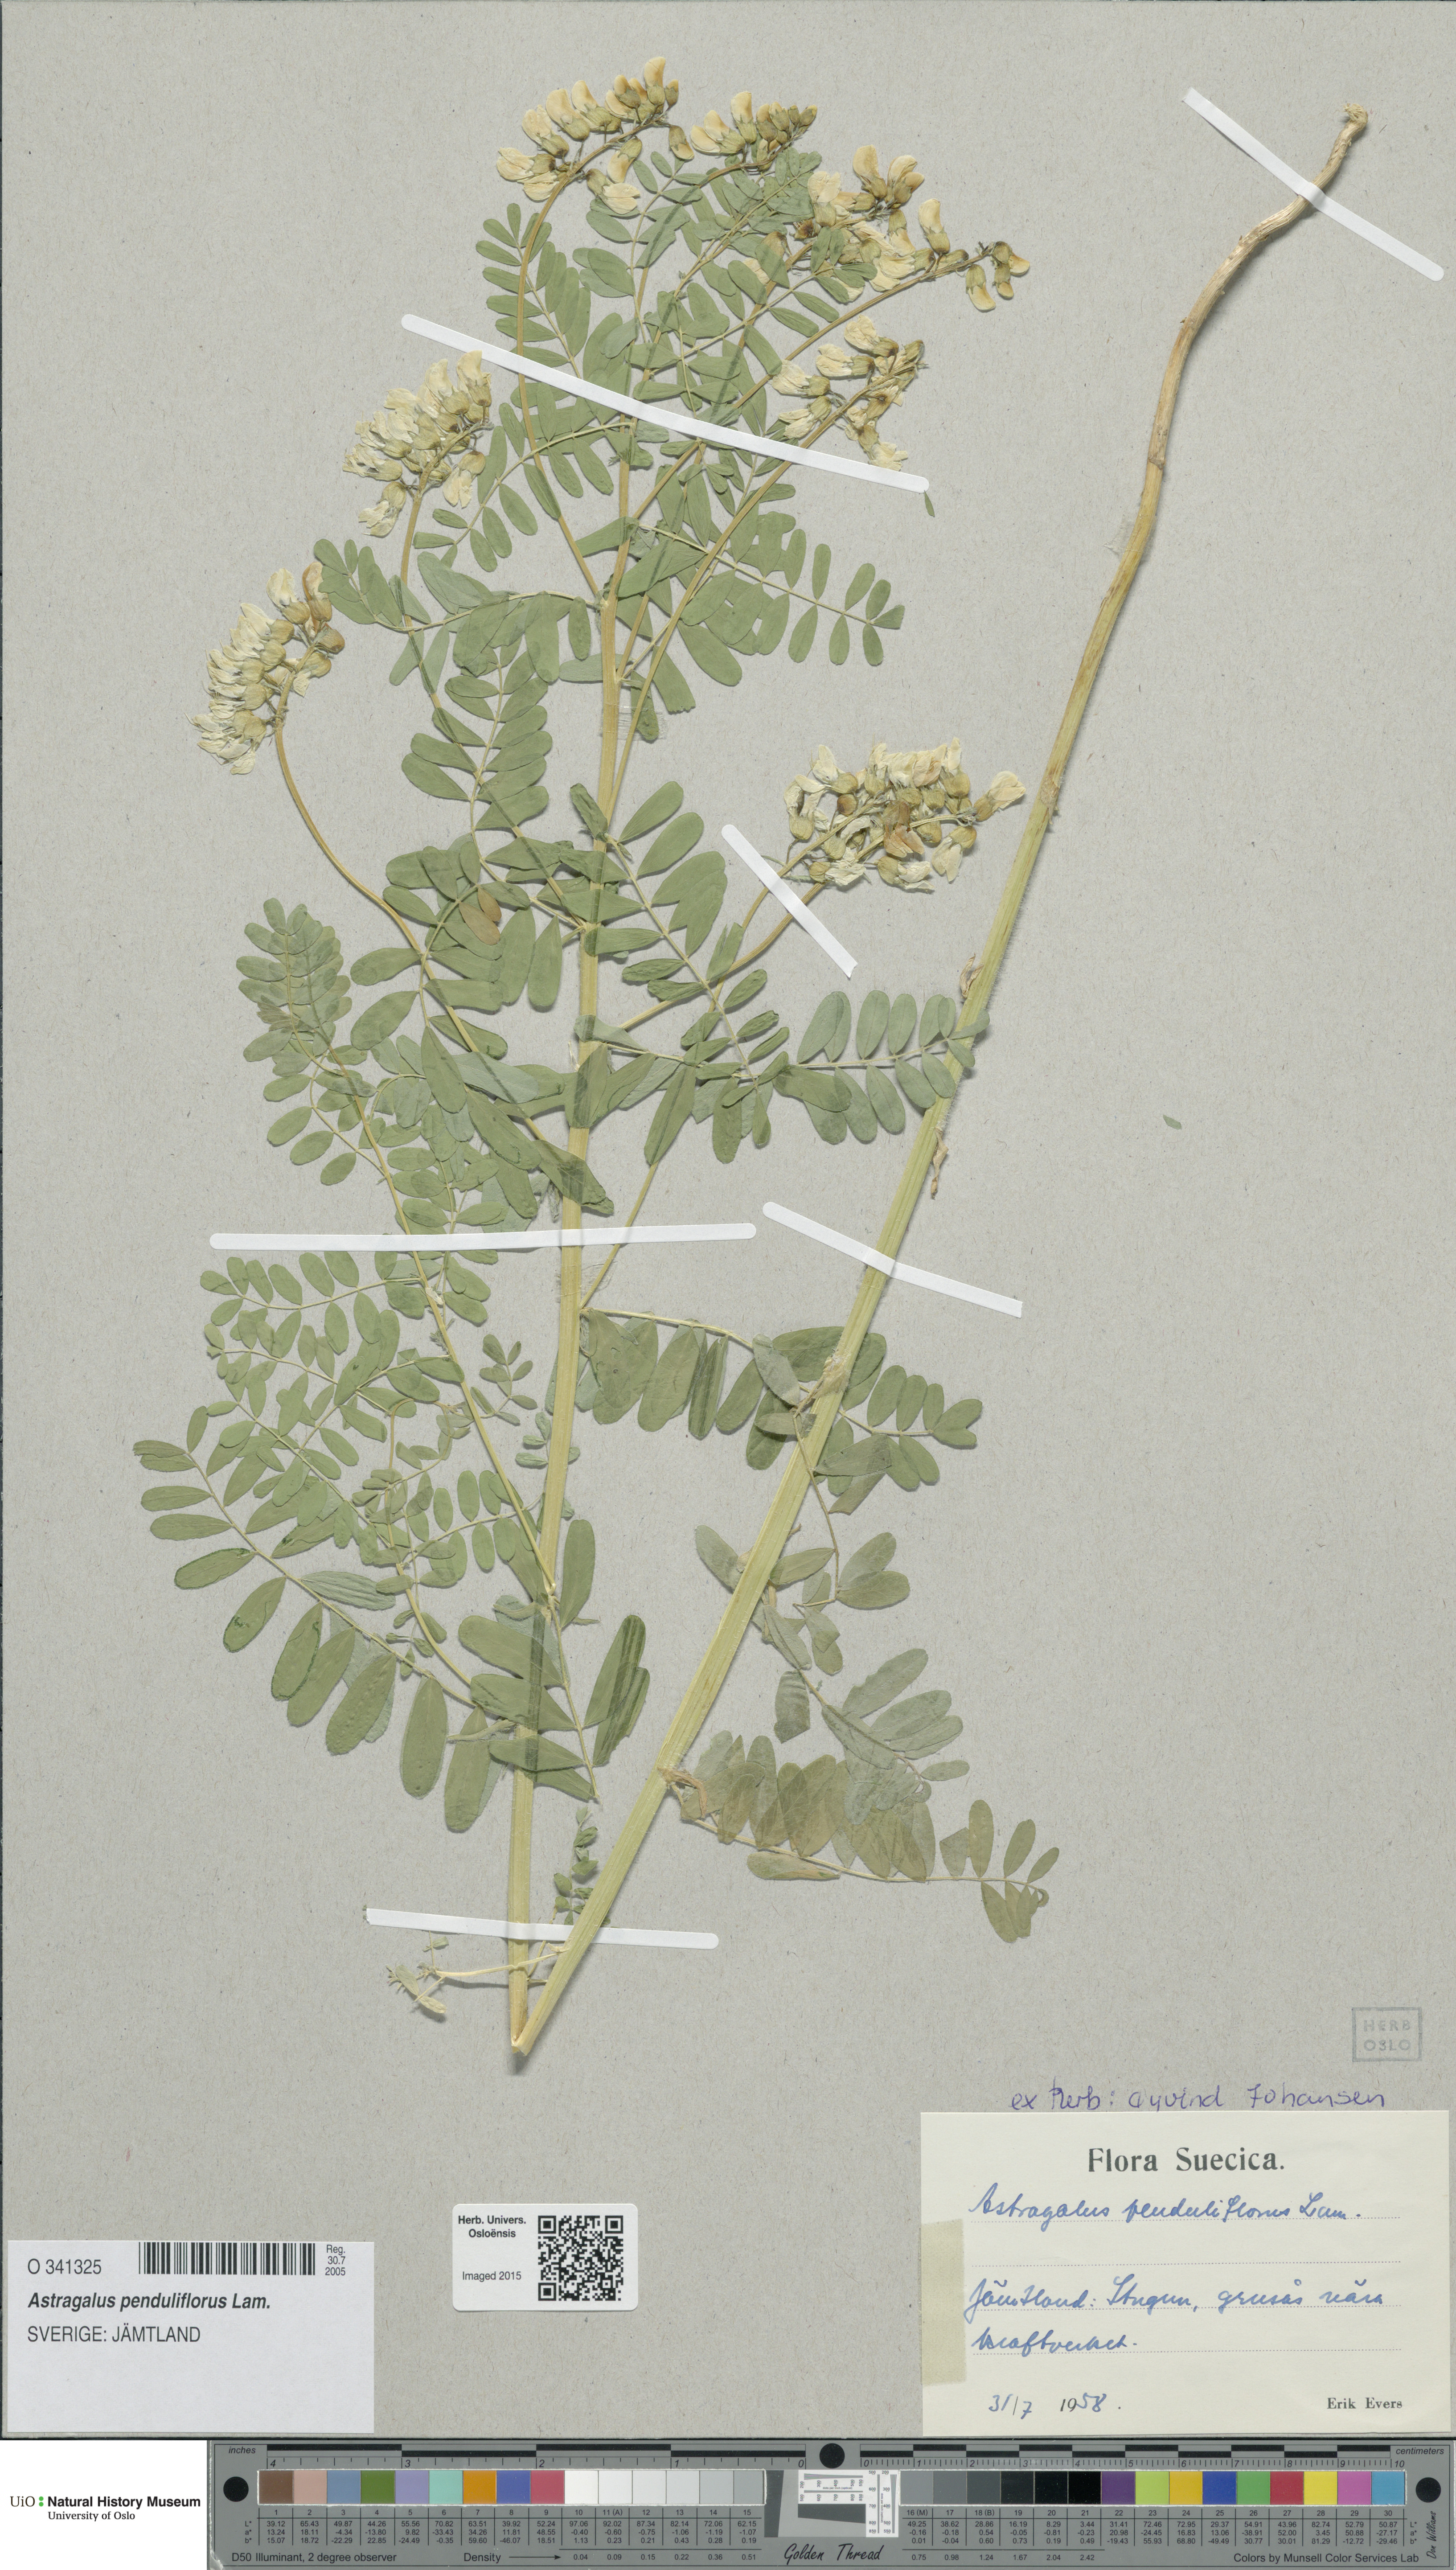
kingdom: Plantae
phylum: Tracheophyta
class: Magnoliopsida
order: Fabales
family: Fabaceae
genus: Astragalus
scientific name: Astragalus penduliflorus
